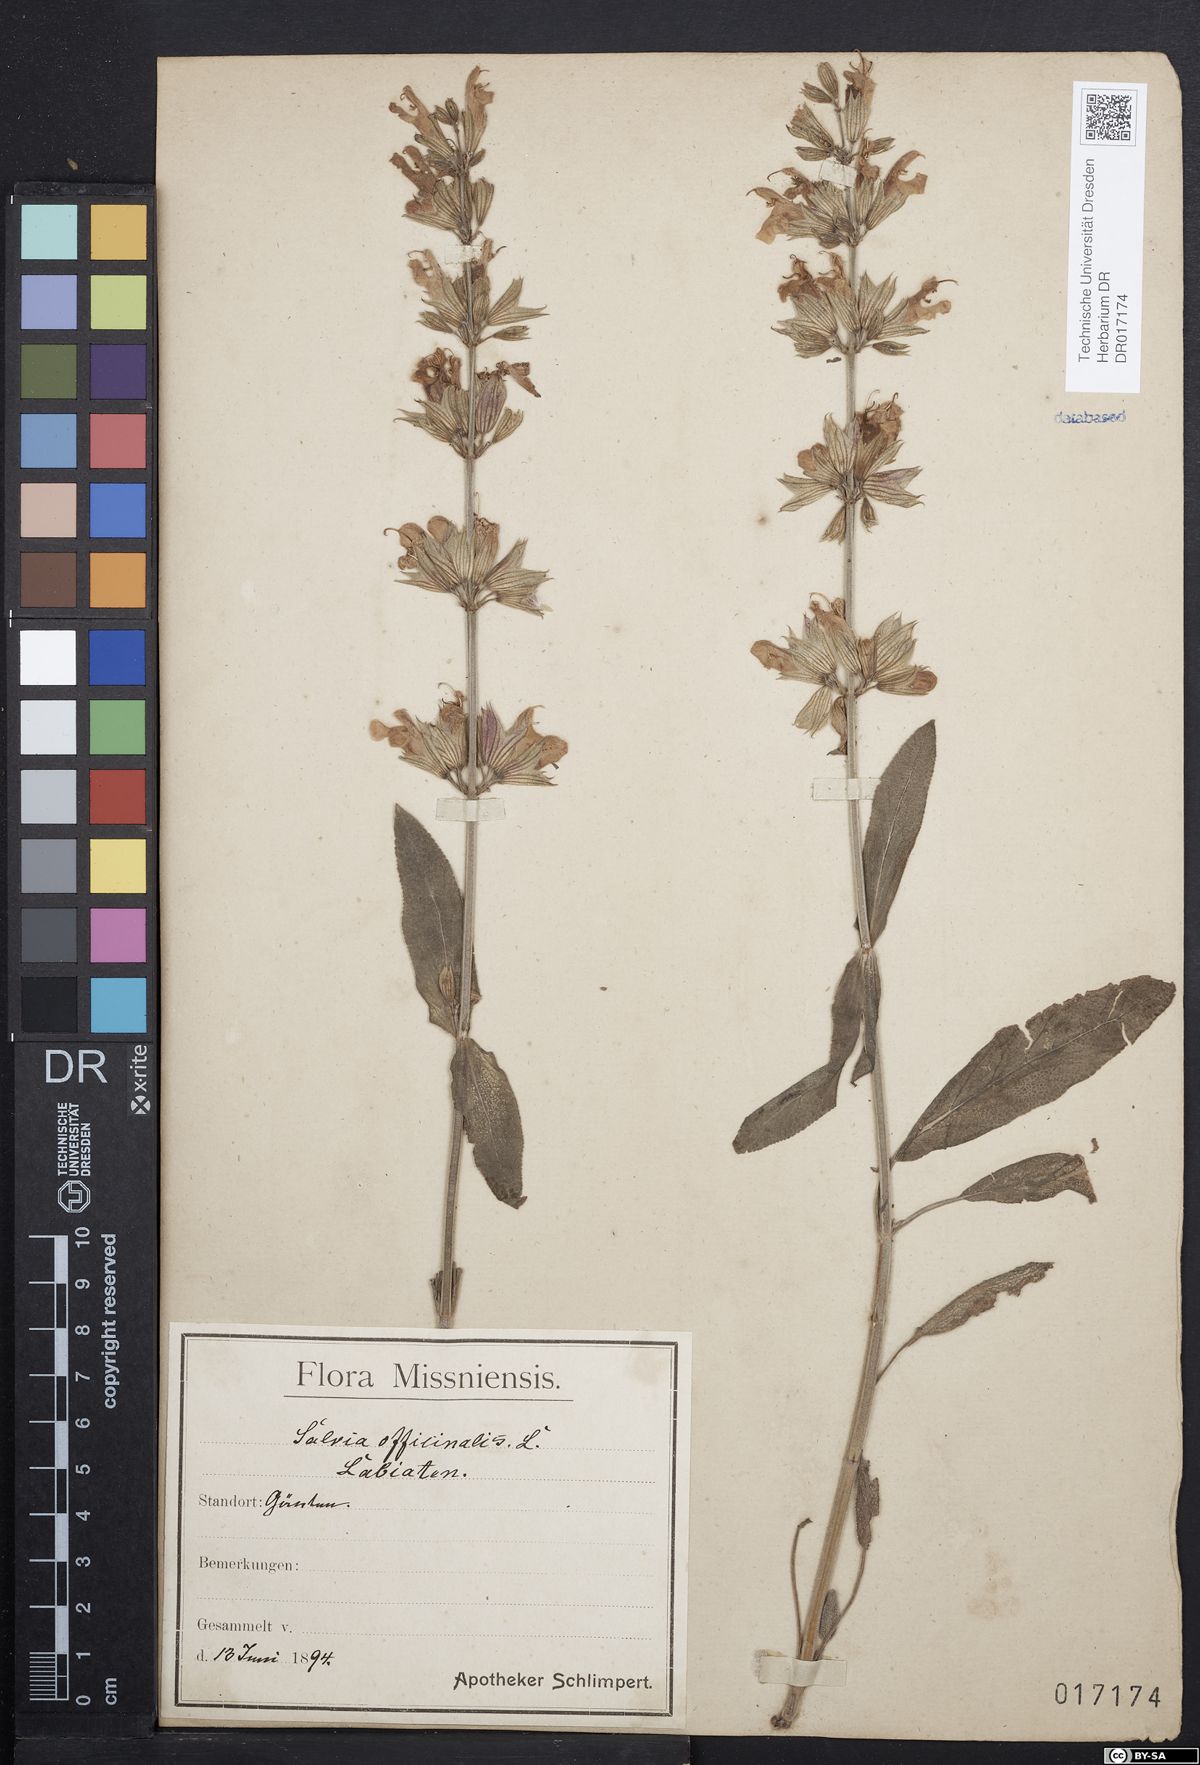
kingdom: Plantae
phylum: Tracheophyta
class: Magnoliopsida
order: Lamiales
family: Lamiaceae
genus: Salvia
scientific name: Salvia officinalis
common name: Sage
